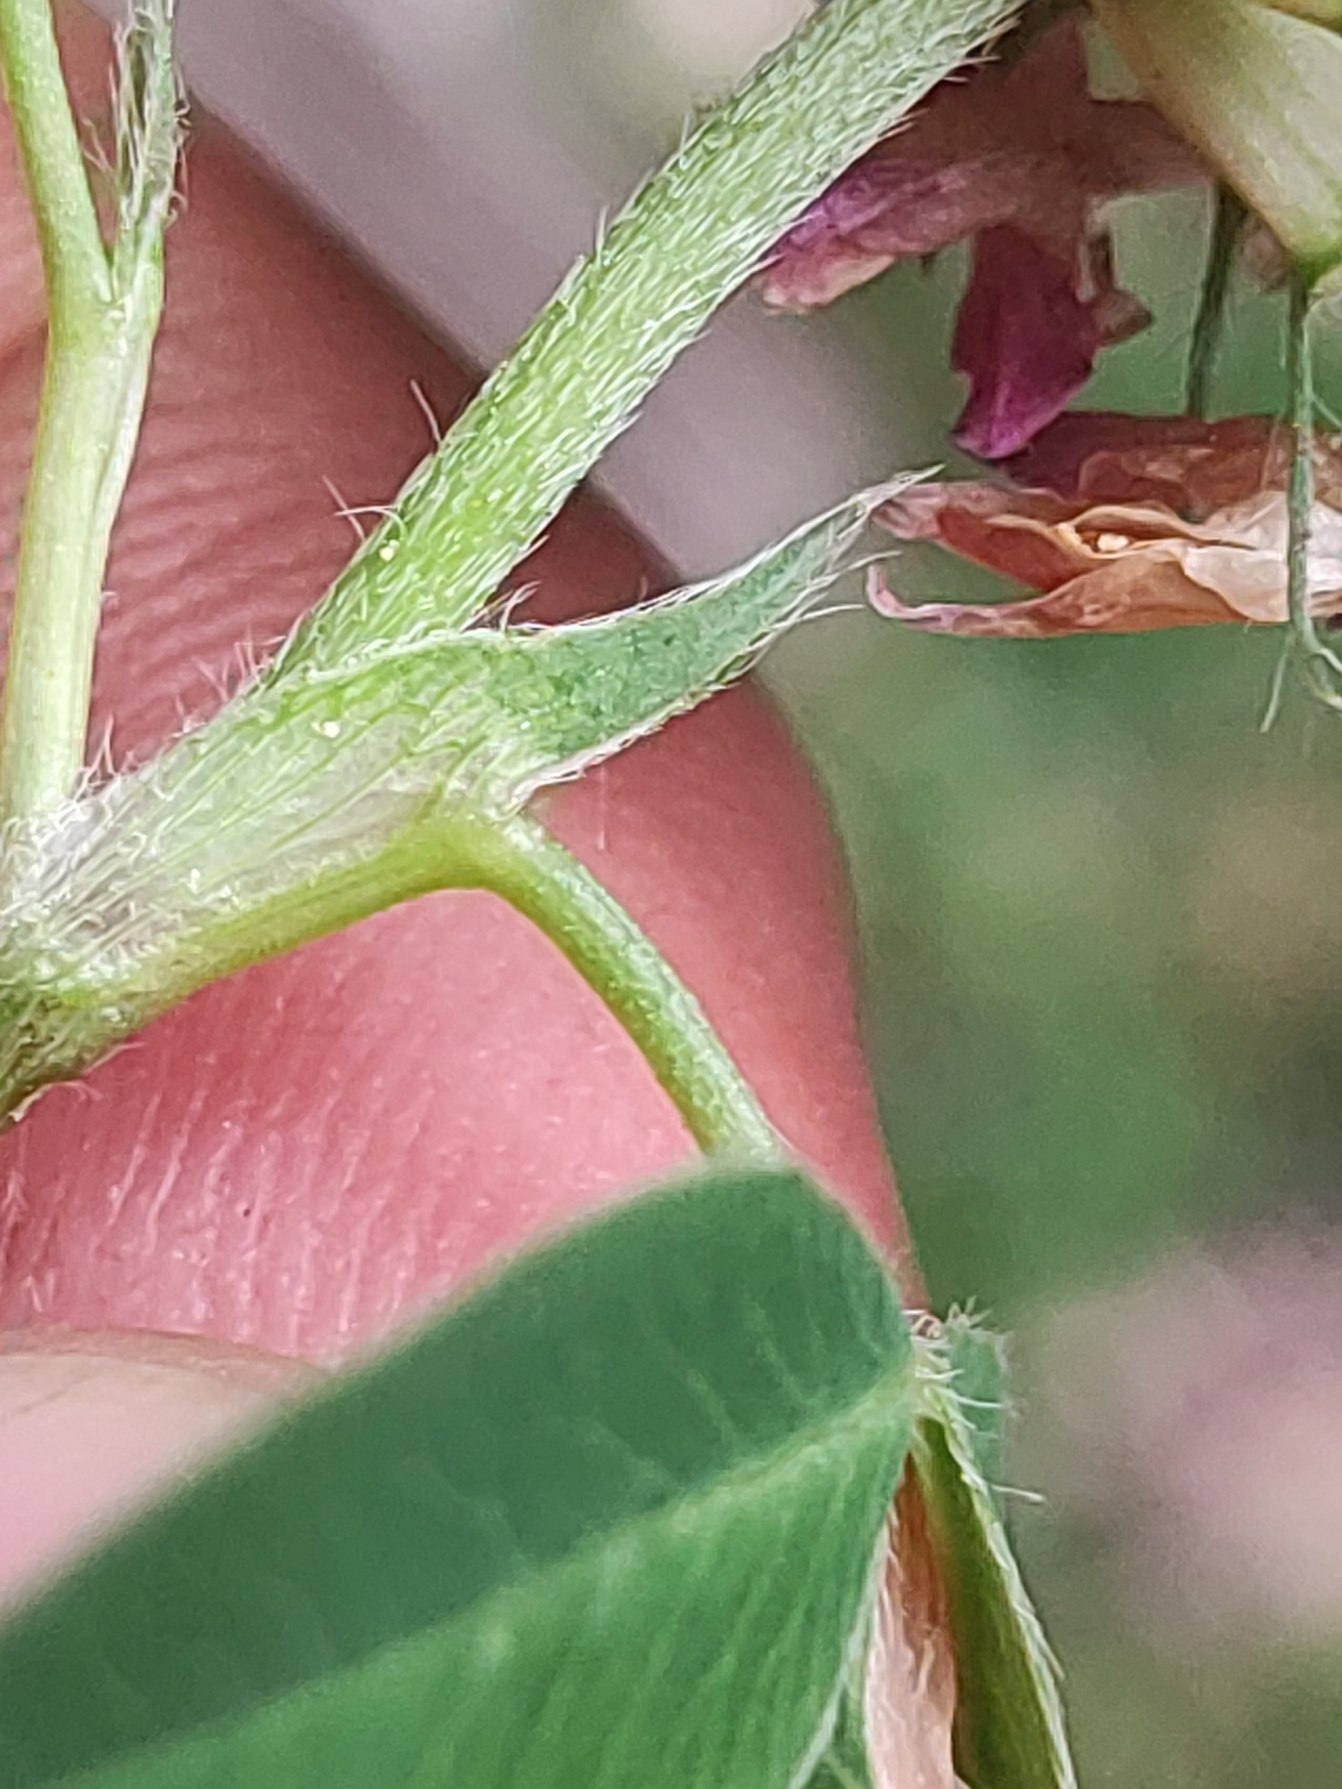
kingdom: Plantae
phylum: Tracheophyta
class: Magnoliopsida
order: Fabales
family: Fabaceae
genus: Trifolium
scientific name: Trifolium medium
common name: Bugtet kløver
